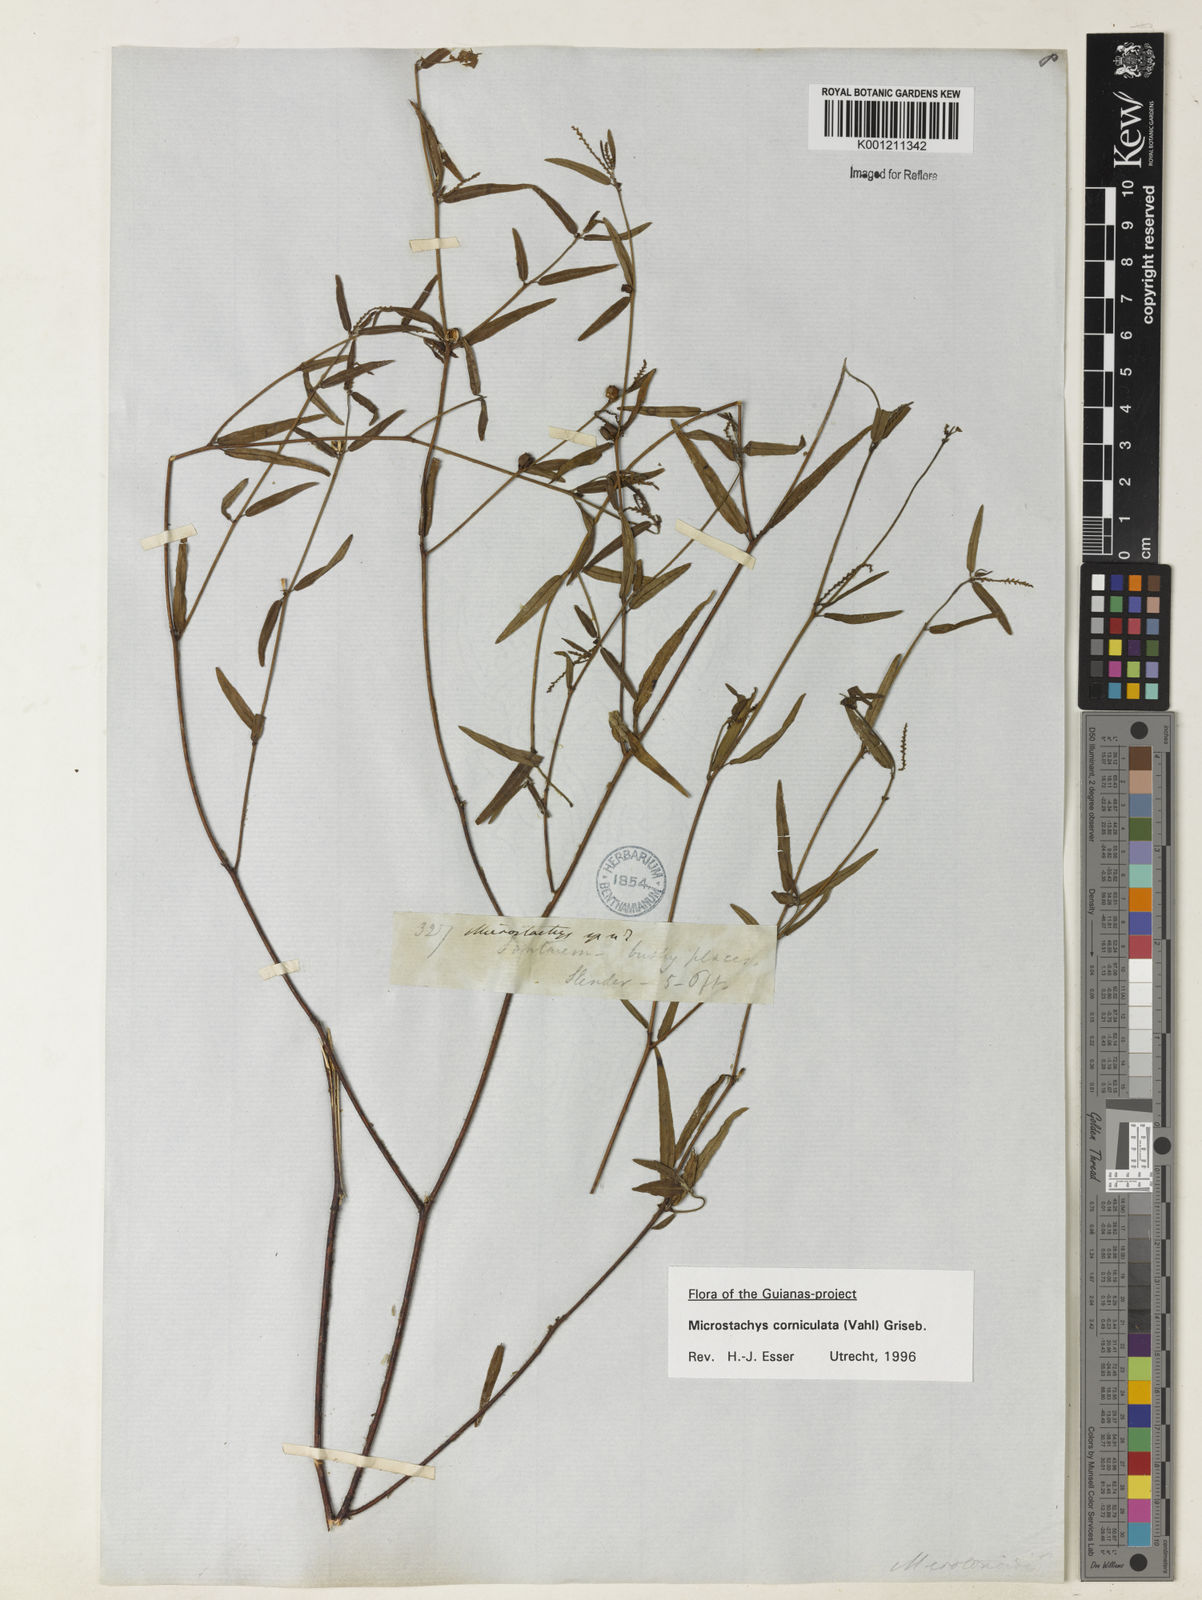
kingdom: Plantae
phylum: Tracheophyta
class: Magnoliopsida
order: Malpighiales
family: Euphorbiaceae
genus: Microstachys
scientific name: Microstachys corniculata
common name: Hato tejas
